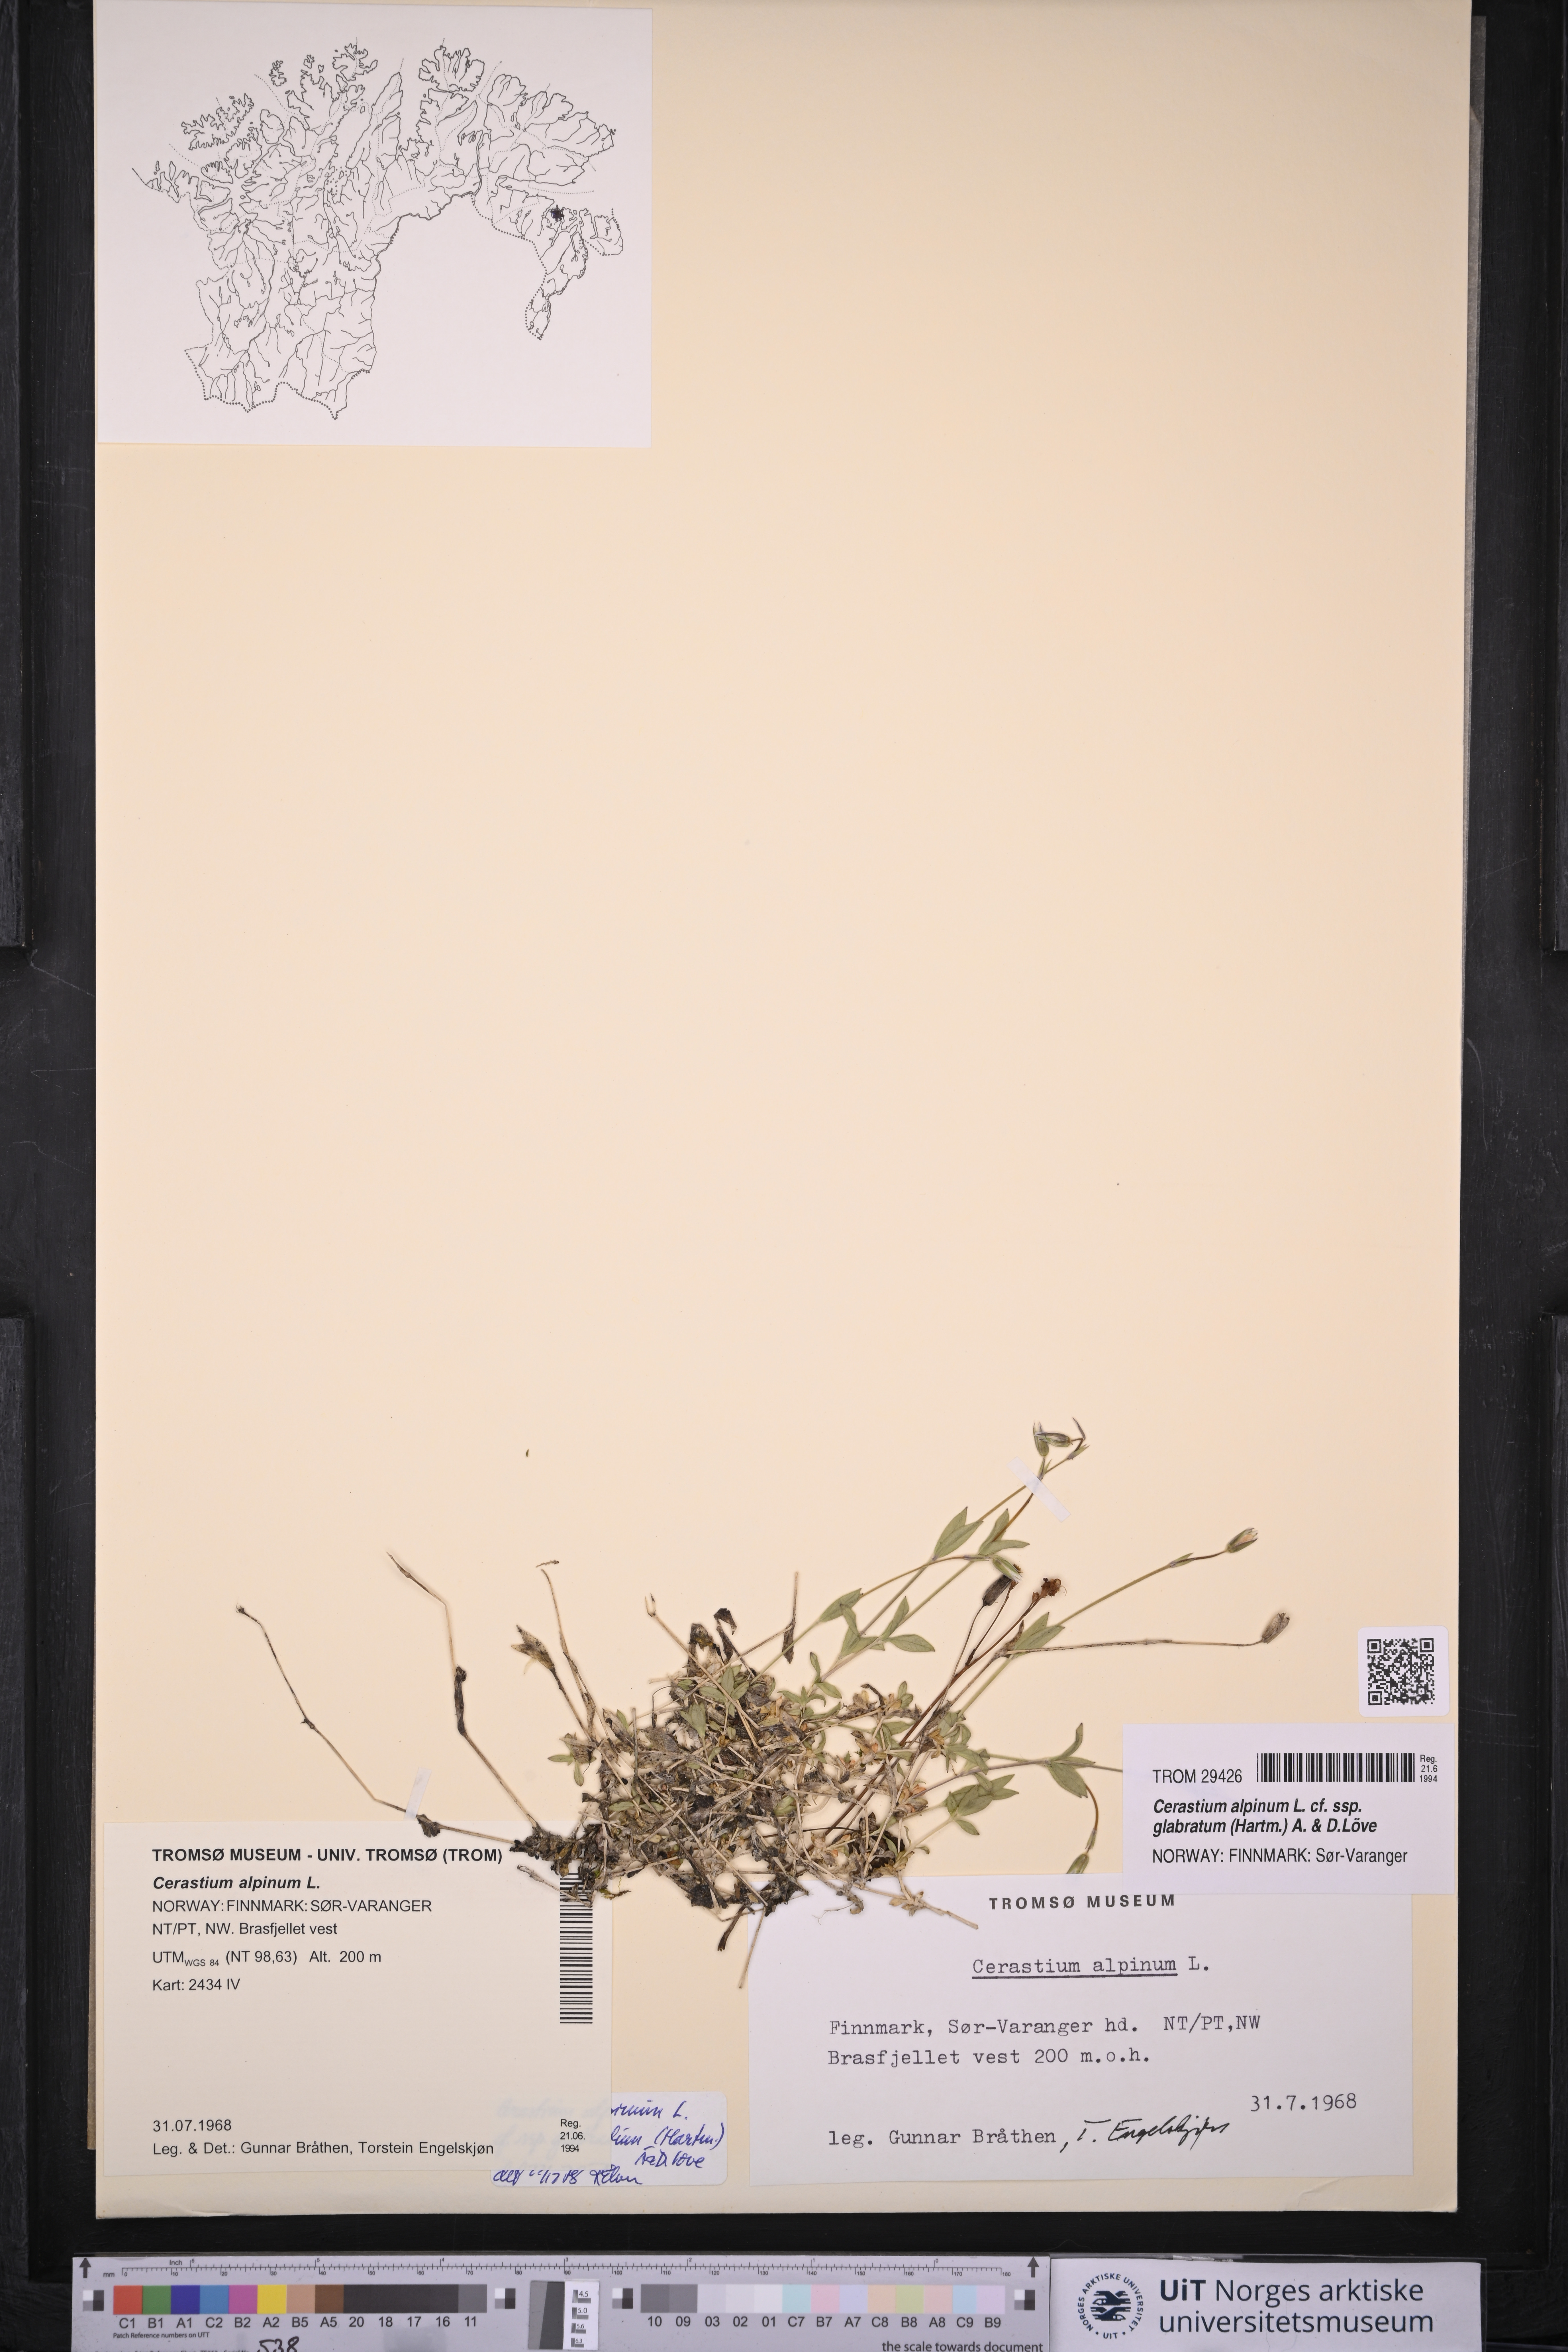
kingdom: Plantae
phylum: Tracheophyta
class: Magnoliopsida
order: Caryophyllales
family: Caryophyllaceae
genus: Cerastium
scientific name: Cerastium alpinum
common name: Alpine mouse-ear
